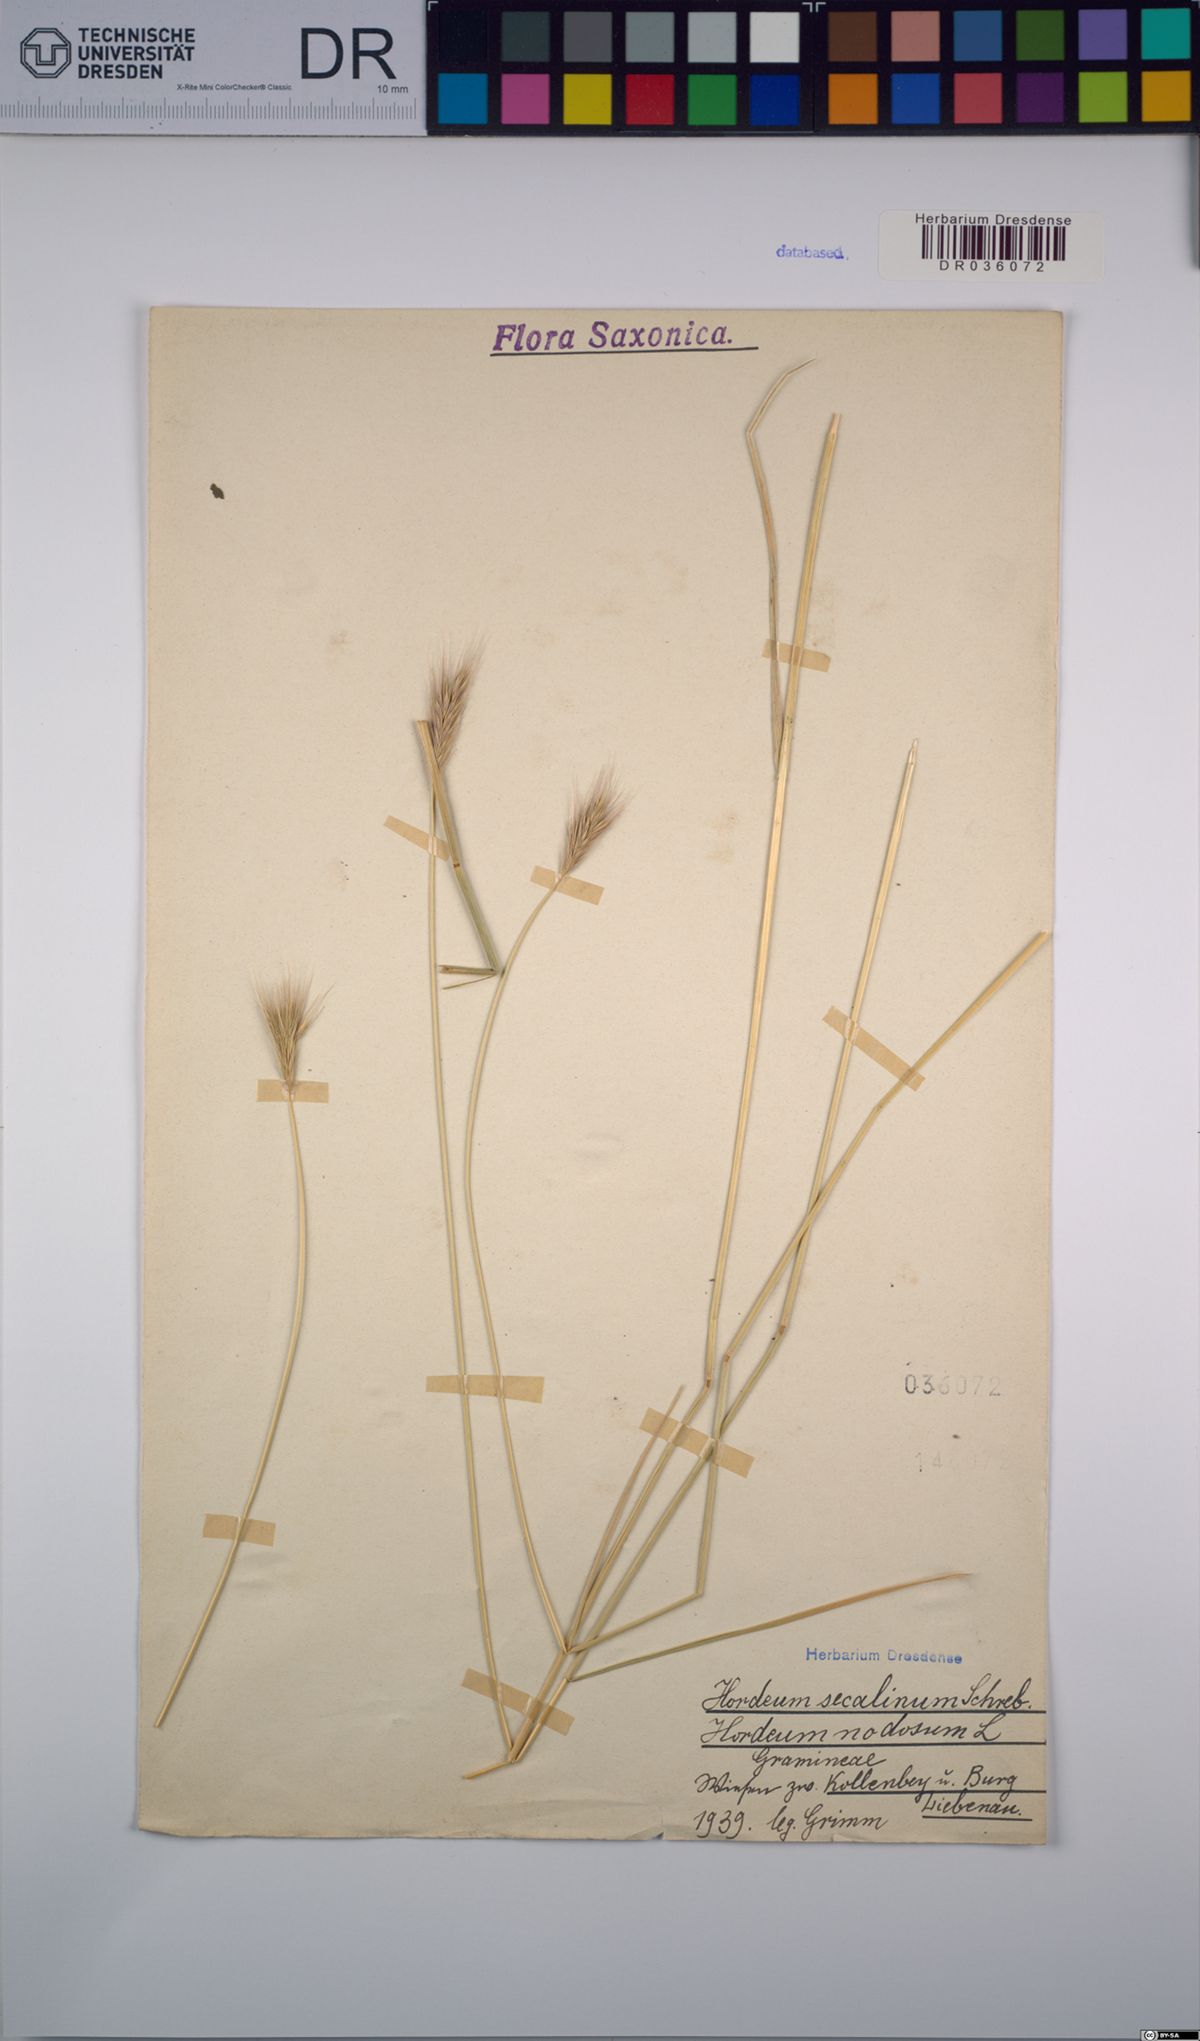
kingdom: Plantae
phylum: Tracheophyta
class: Liliopsida
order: Poales
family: Poaceae
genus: Hordeum
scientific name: Hordeum secalinum
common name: Meadow barley
